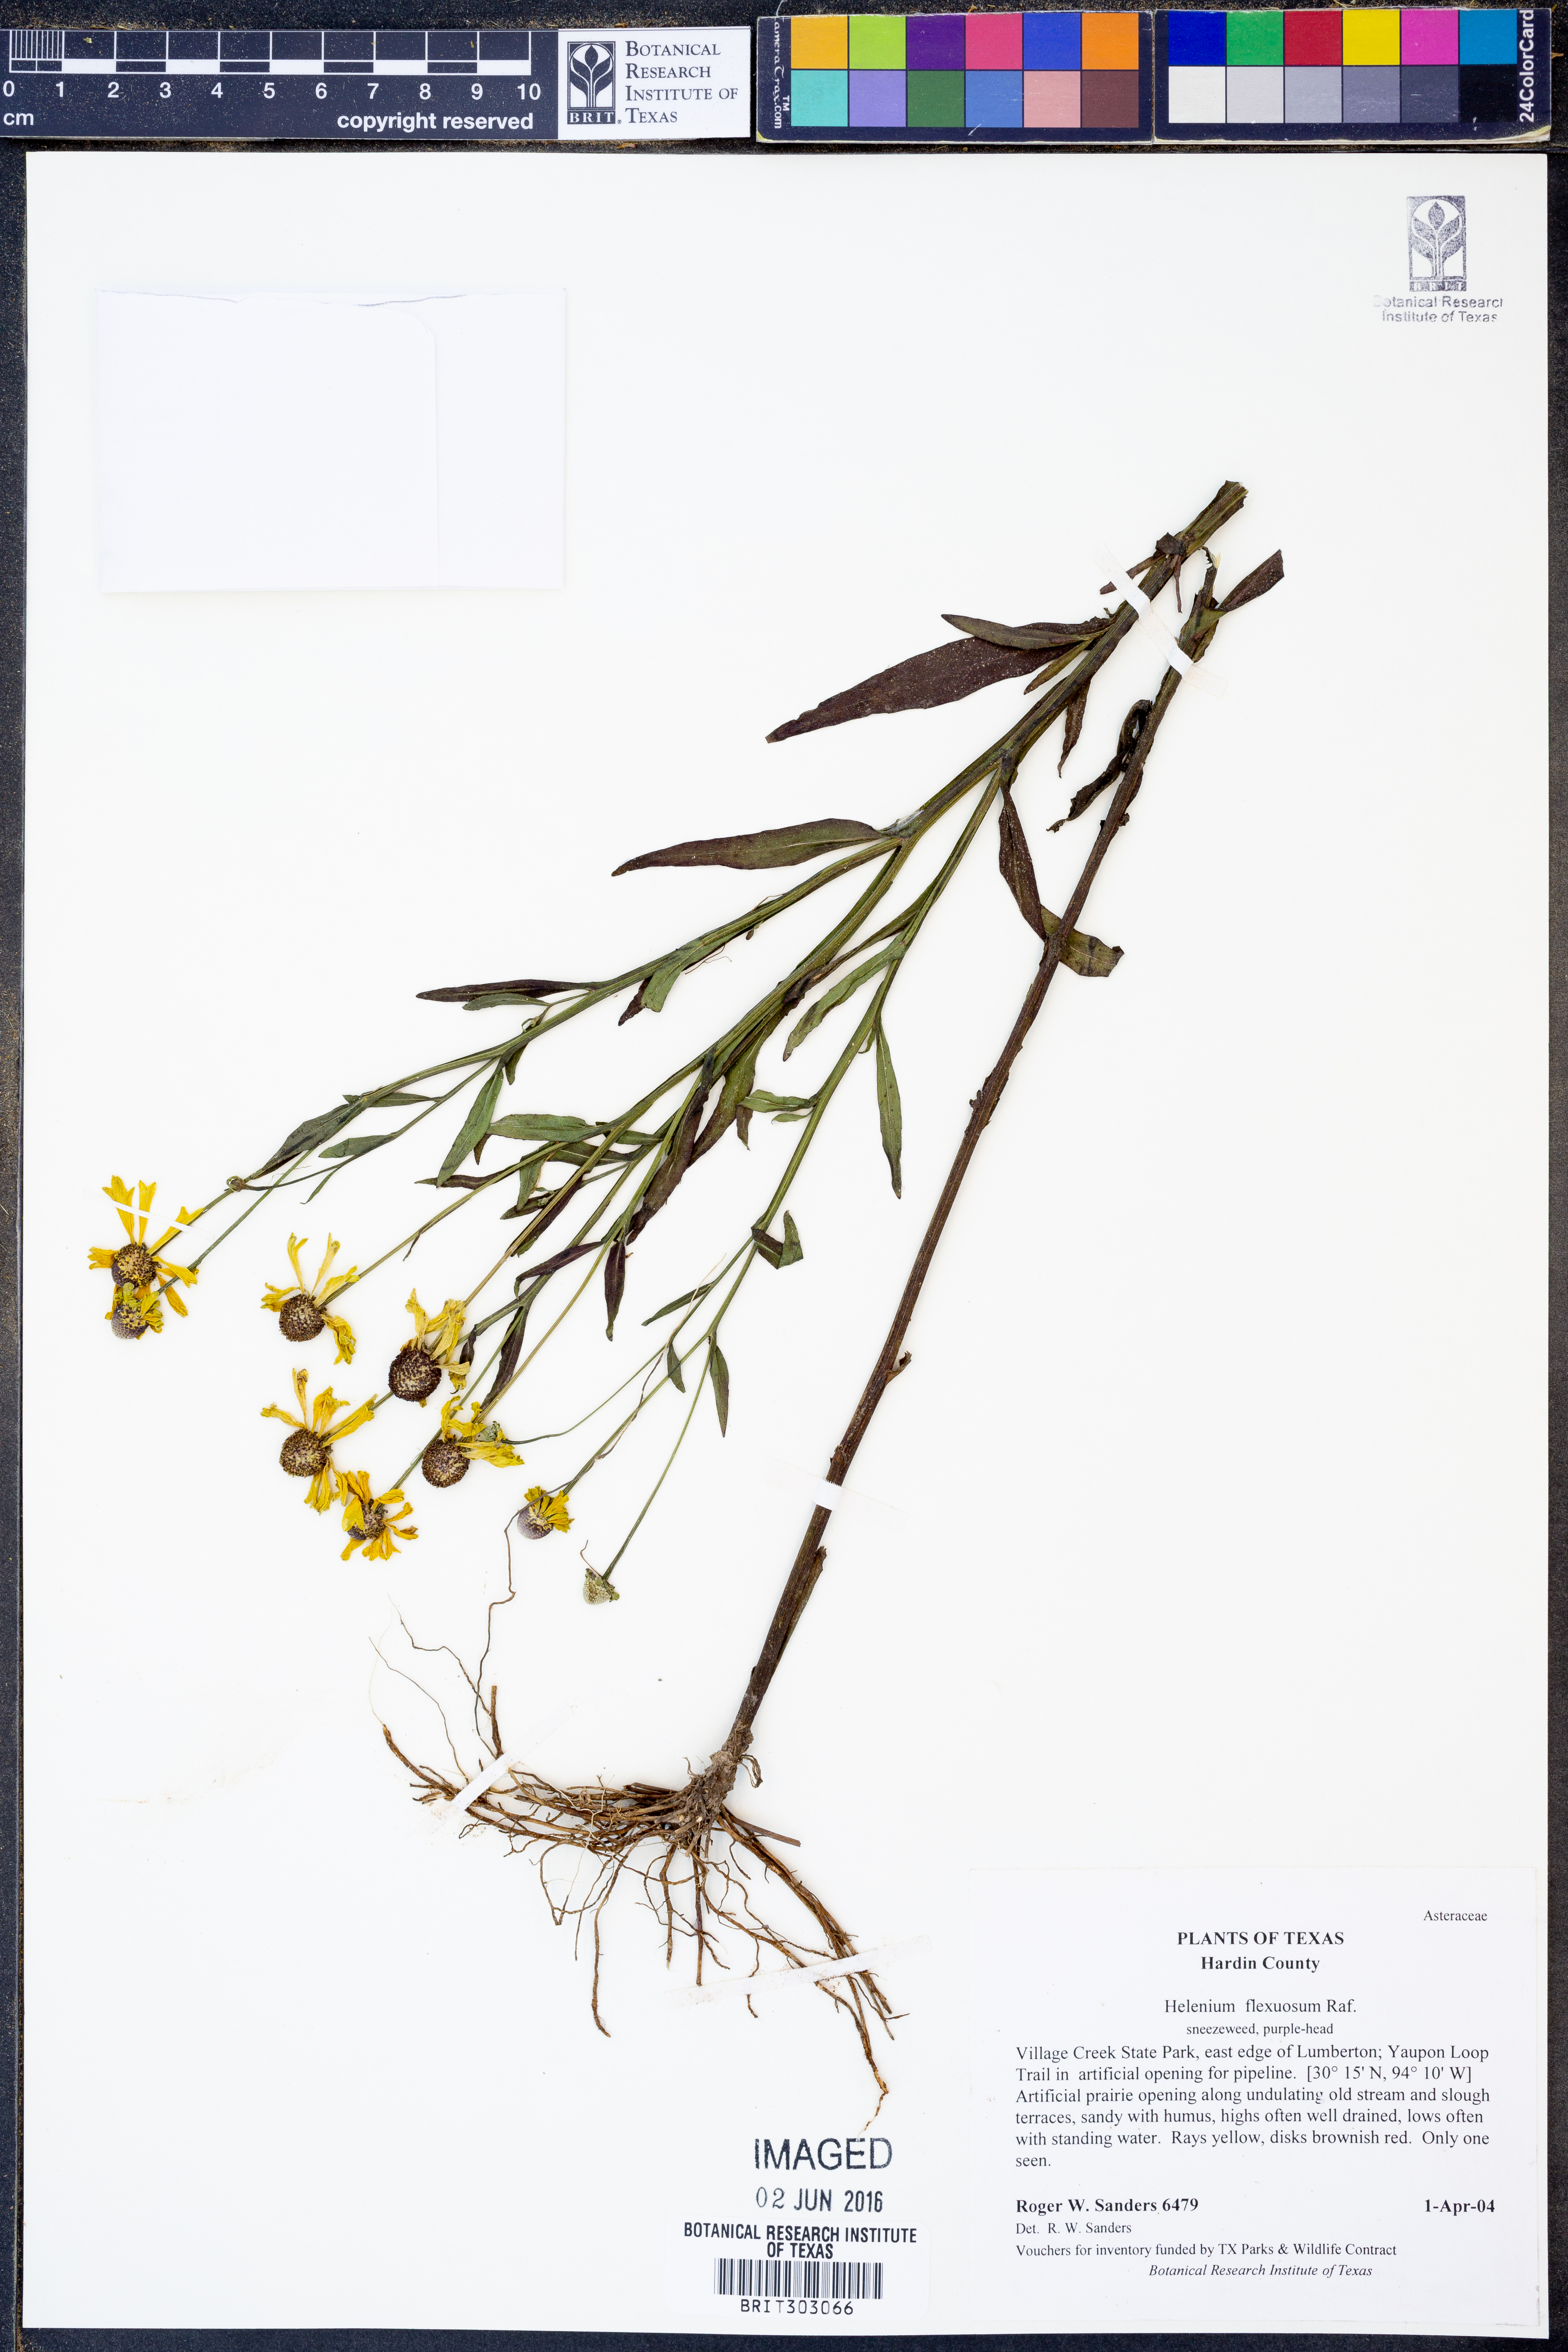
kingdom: Plantae
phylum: Tracheophyta
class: Magnoliopsida
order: Asterales
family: Asteraceae
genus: Helenium
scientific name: Helenium flexuosum
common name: Naked-flowered sneezeweed
